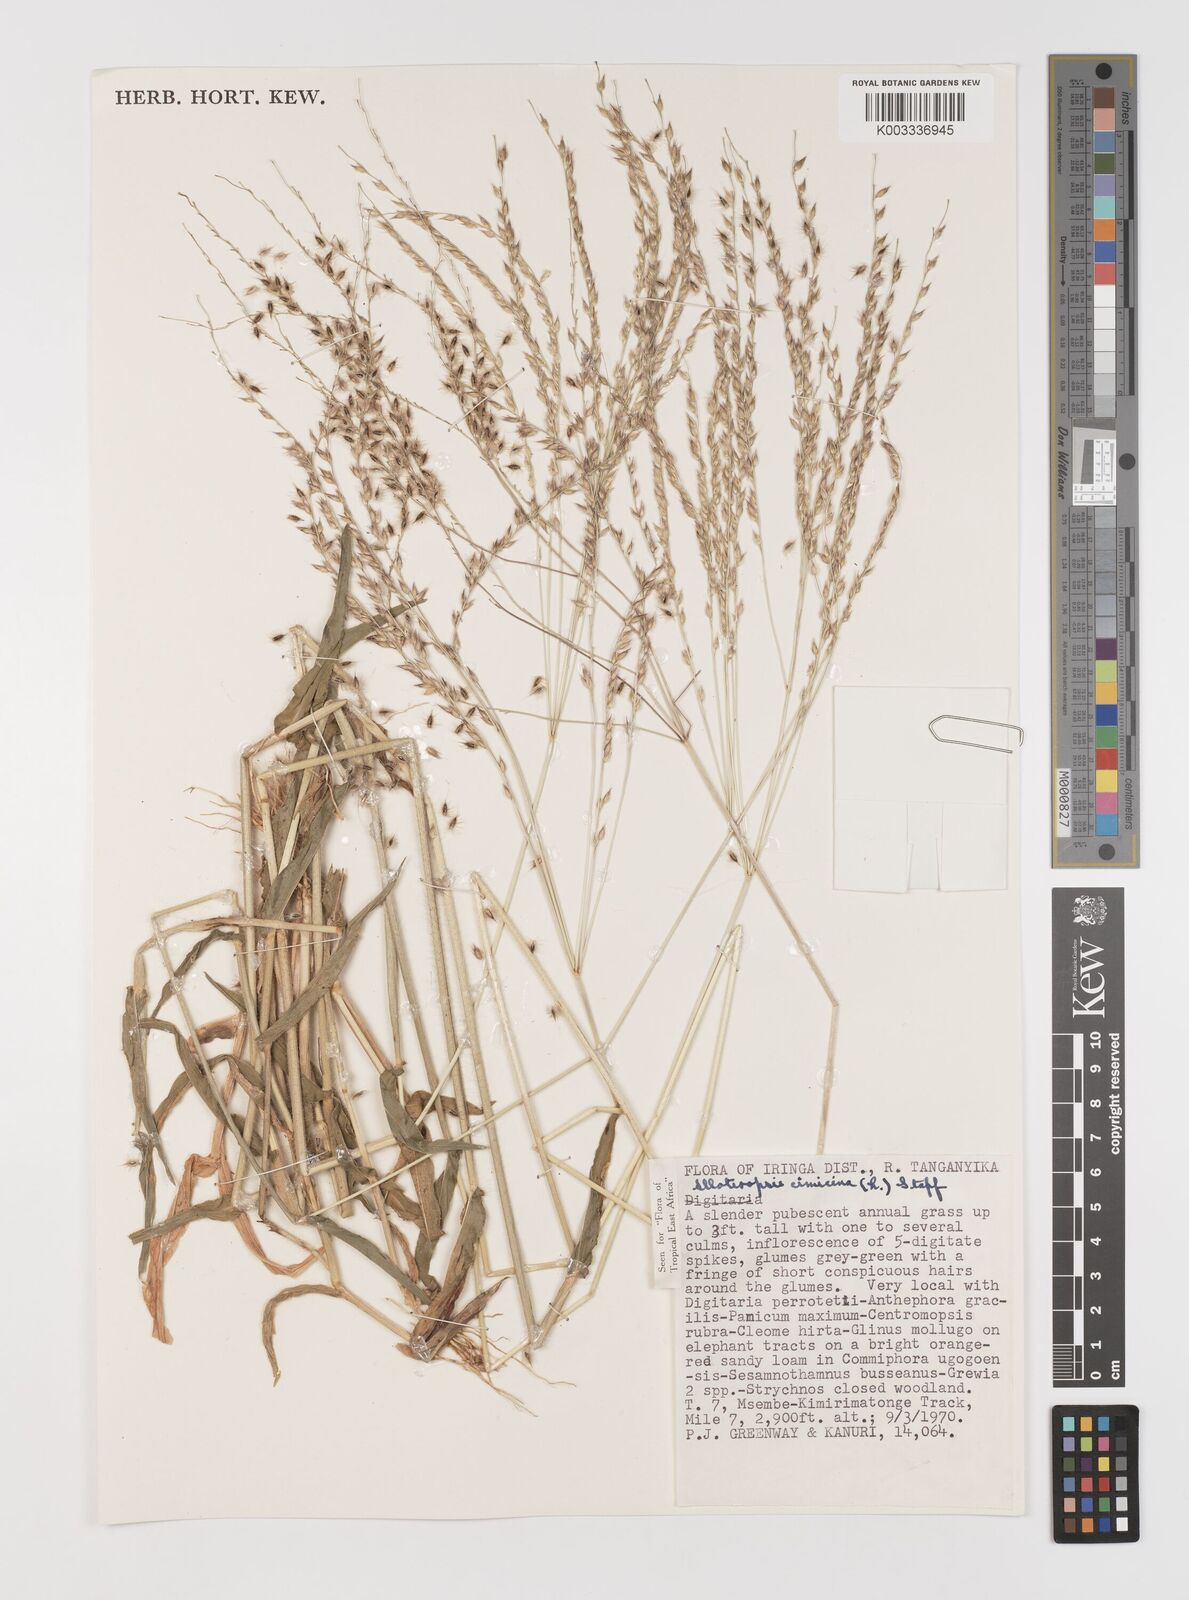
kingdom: Plantae
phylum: Tracheophyta
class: Liliopsida
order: Poales
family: Poaceae
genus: Alloteropsis
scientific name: Alloteropsis cimicina
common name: Summergrass
